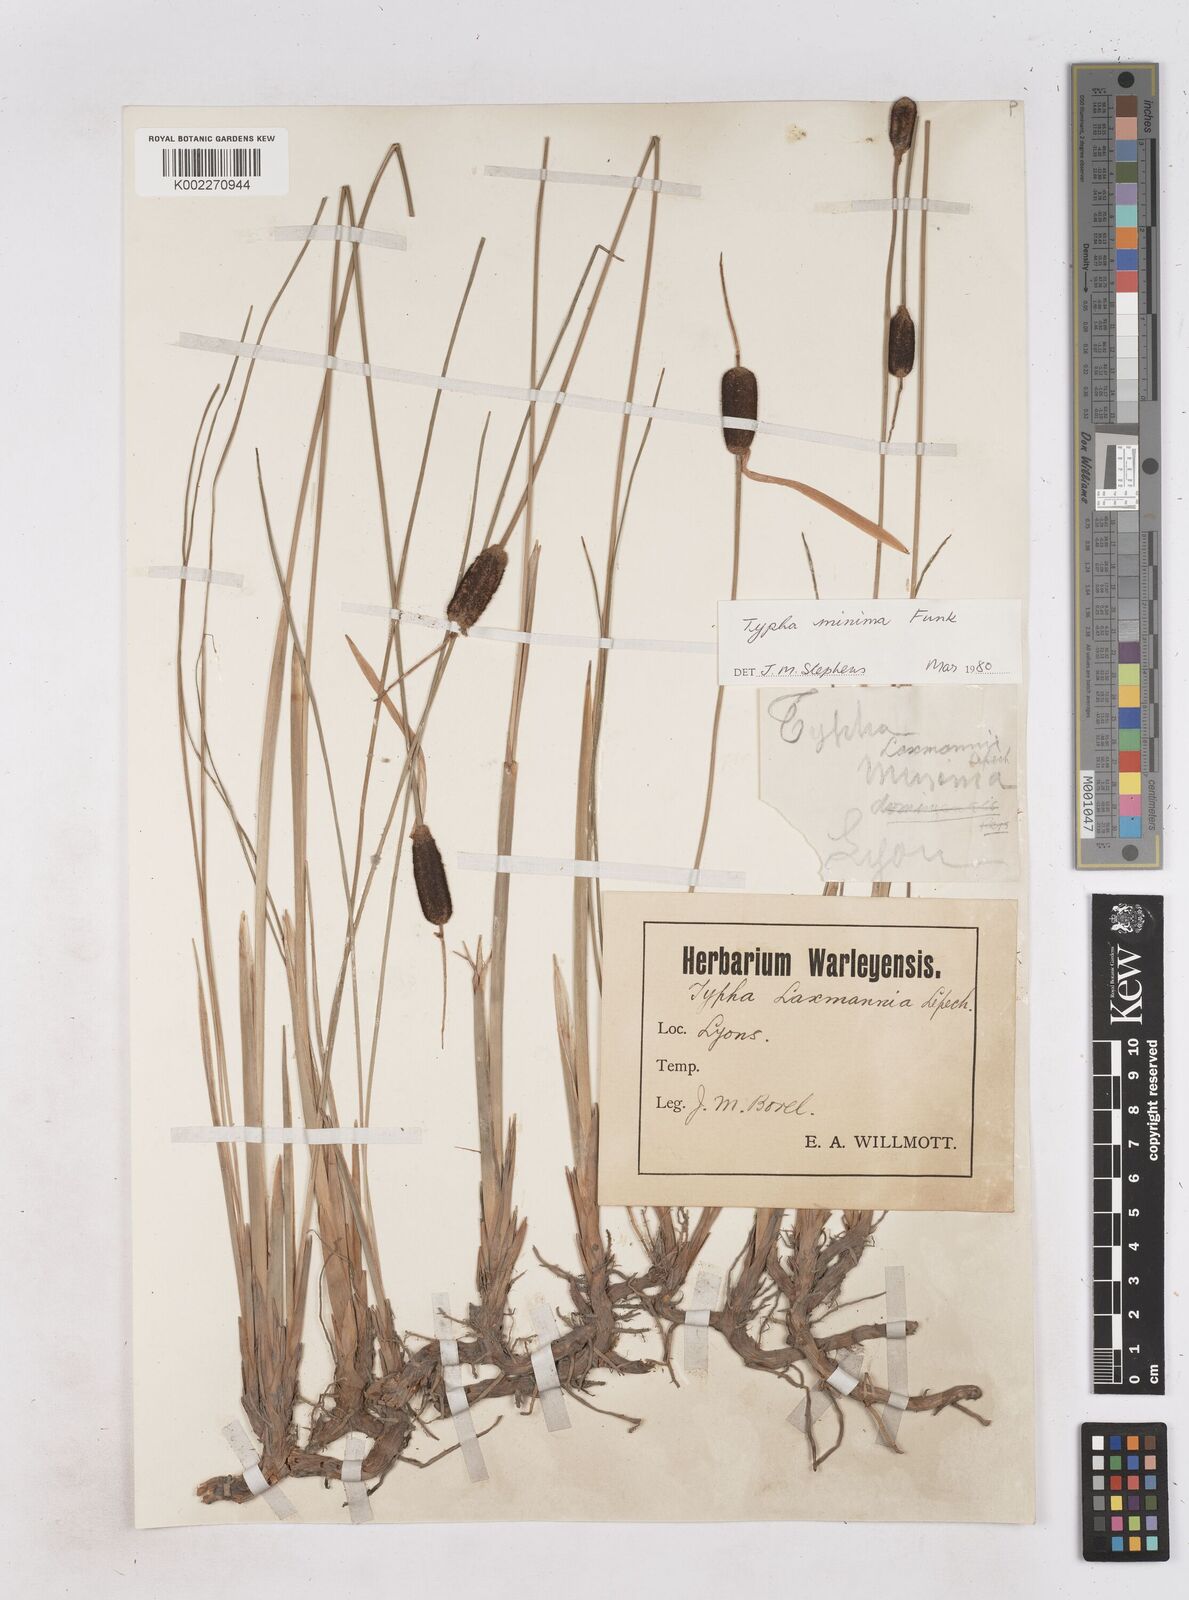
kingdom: Plantae
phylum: Tracheophyta
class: Liliopsida
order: Poales
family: Typhaceae
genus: Typha
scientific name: Typha
